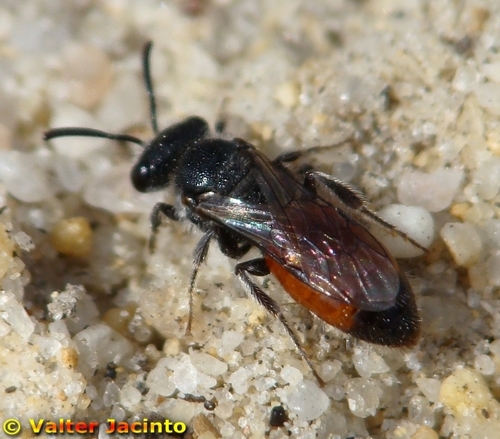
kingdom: Animalia
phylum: Arthropoda
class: Insecta
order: Hymenoptera
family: Halictidae
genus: Sphecodes
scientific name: Sphecodes
